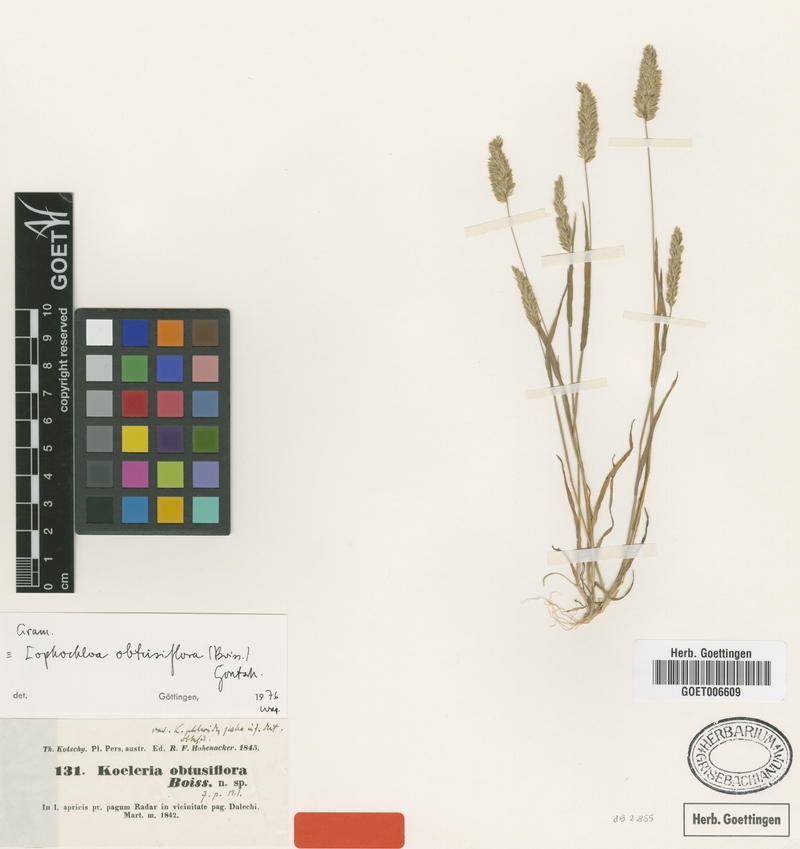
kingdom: Plantae
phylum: Tracheophyta
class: Liliopsida
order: Poales
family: Poaceae
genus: Rostraria
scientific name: Rostraria obtusiflora
